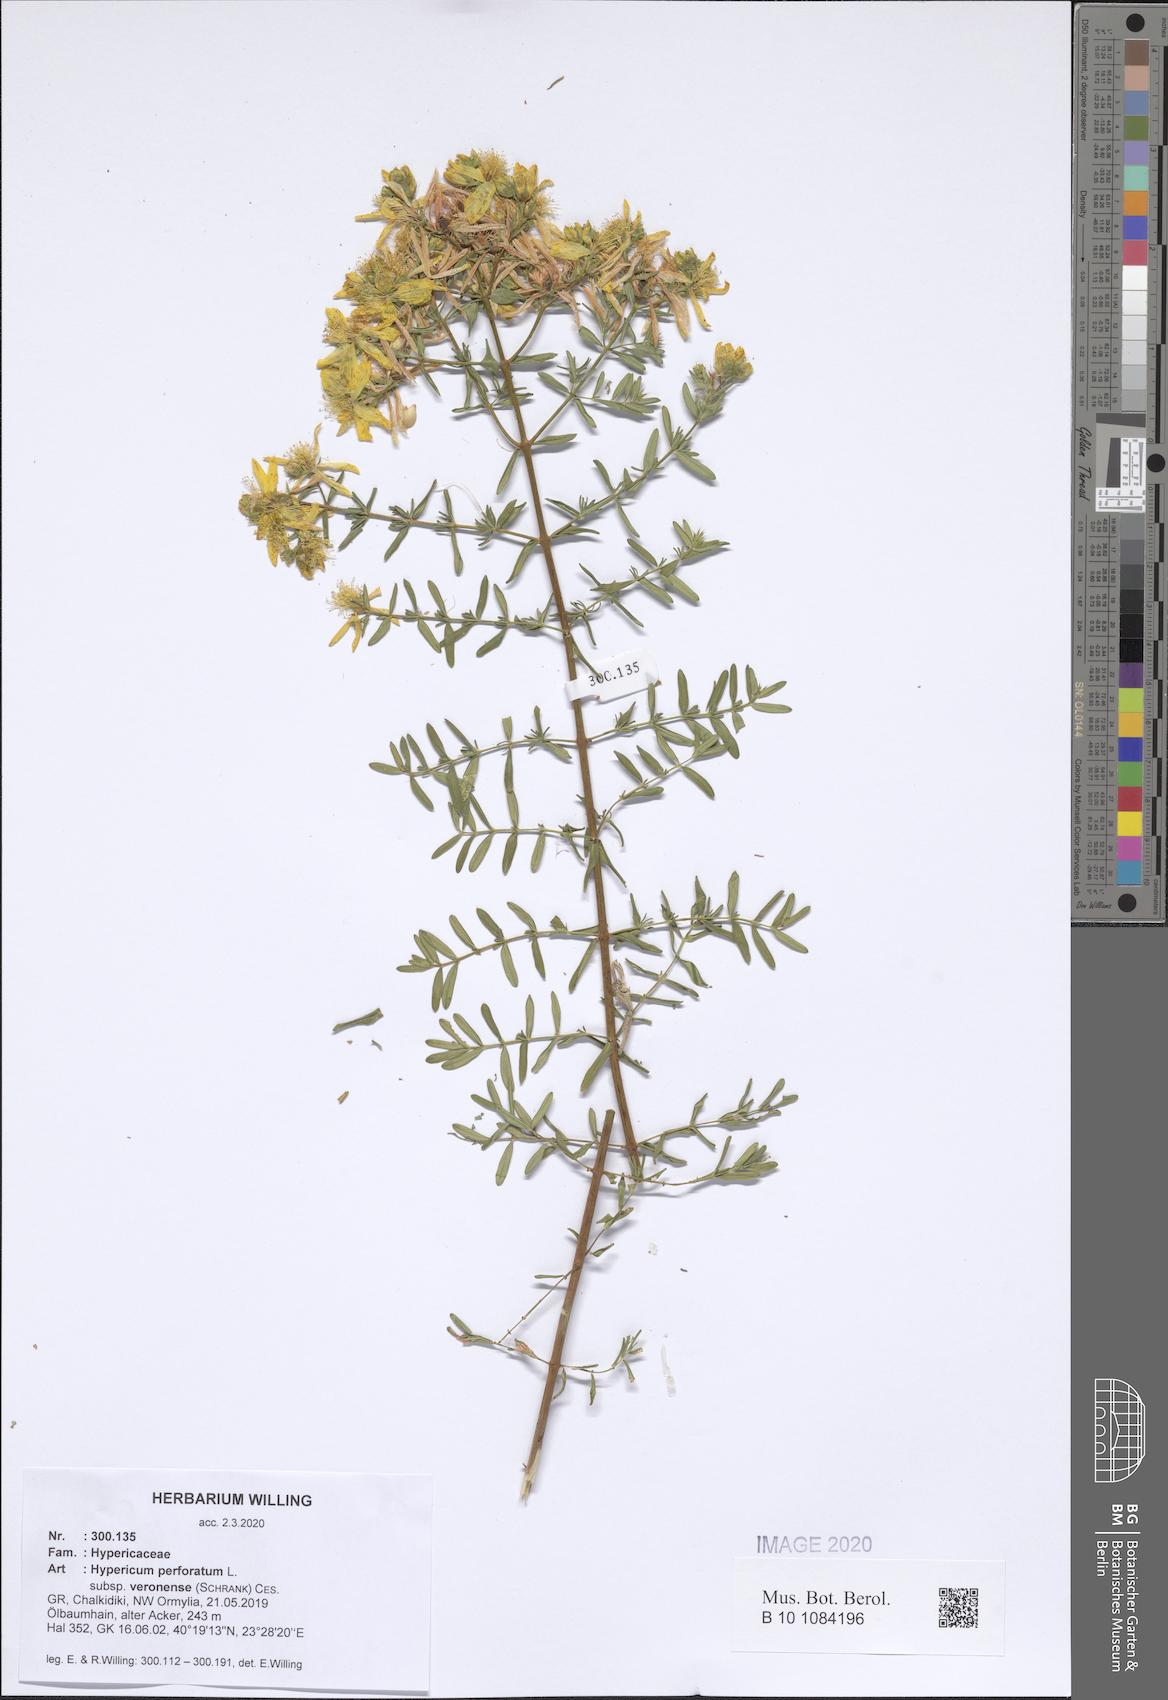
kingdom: Plantae
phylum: Tracheophyta
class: Magnoliopsida
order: Malpighiales
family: Hypericaceae
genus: Hypericum
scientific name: Hypericum veronense
